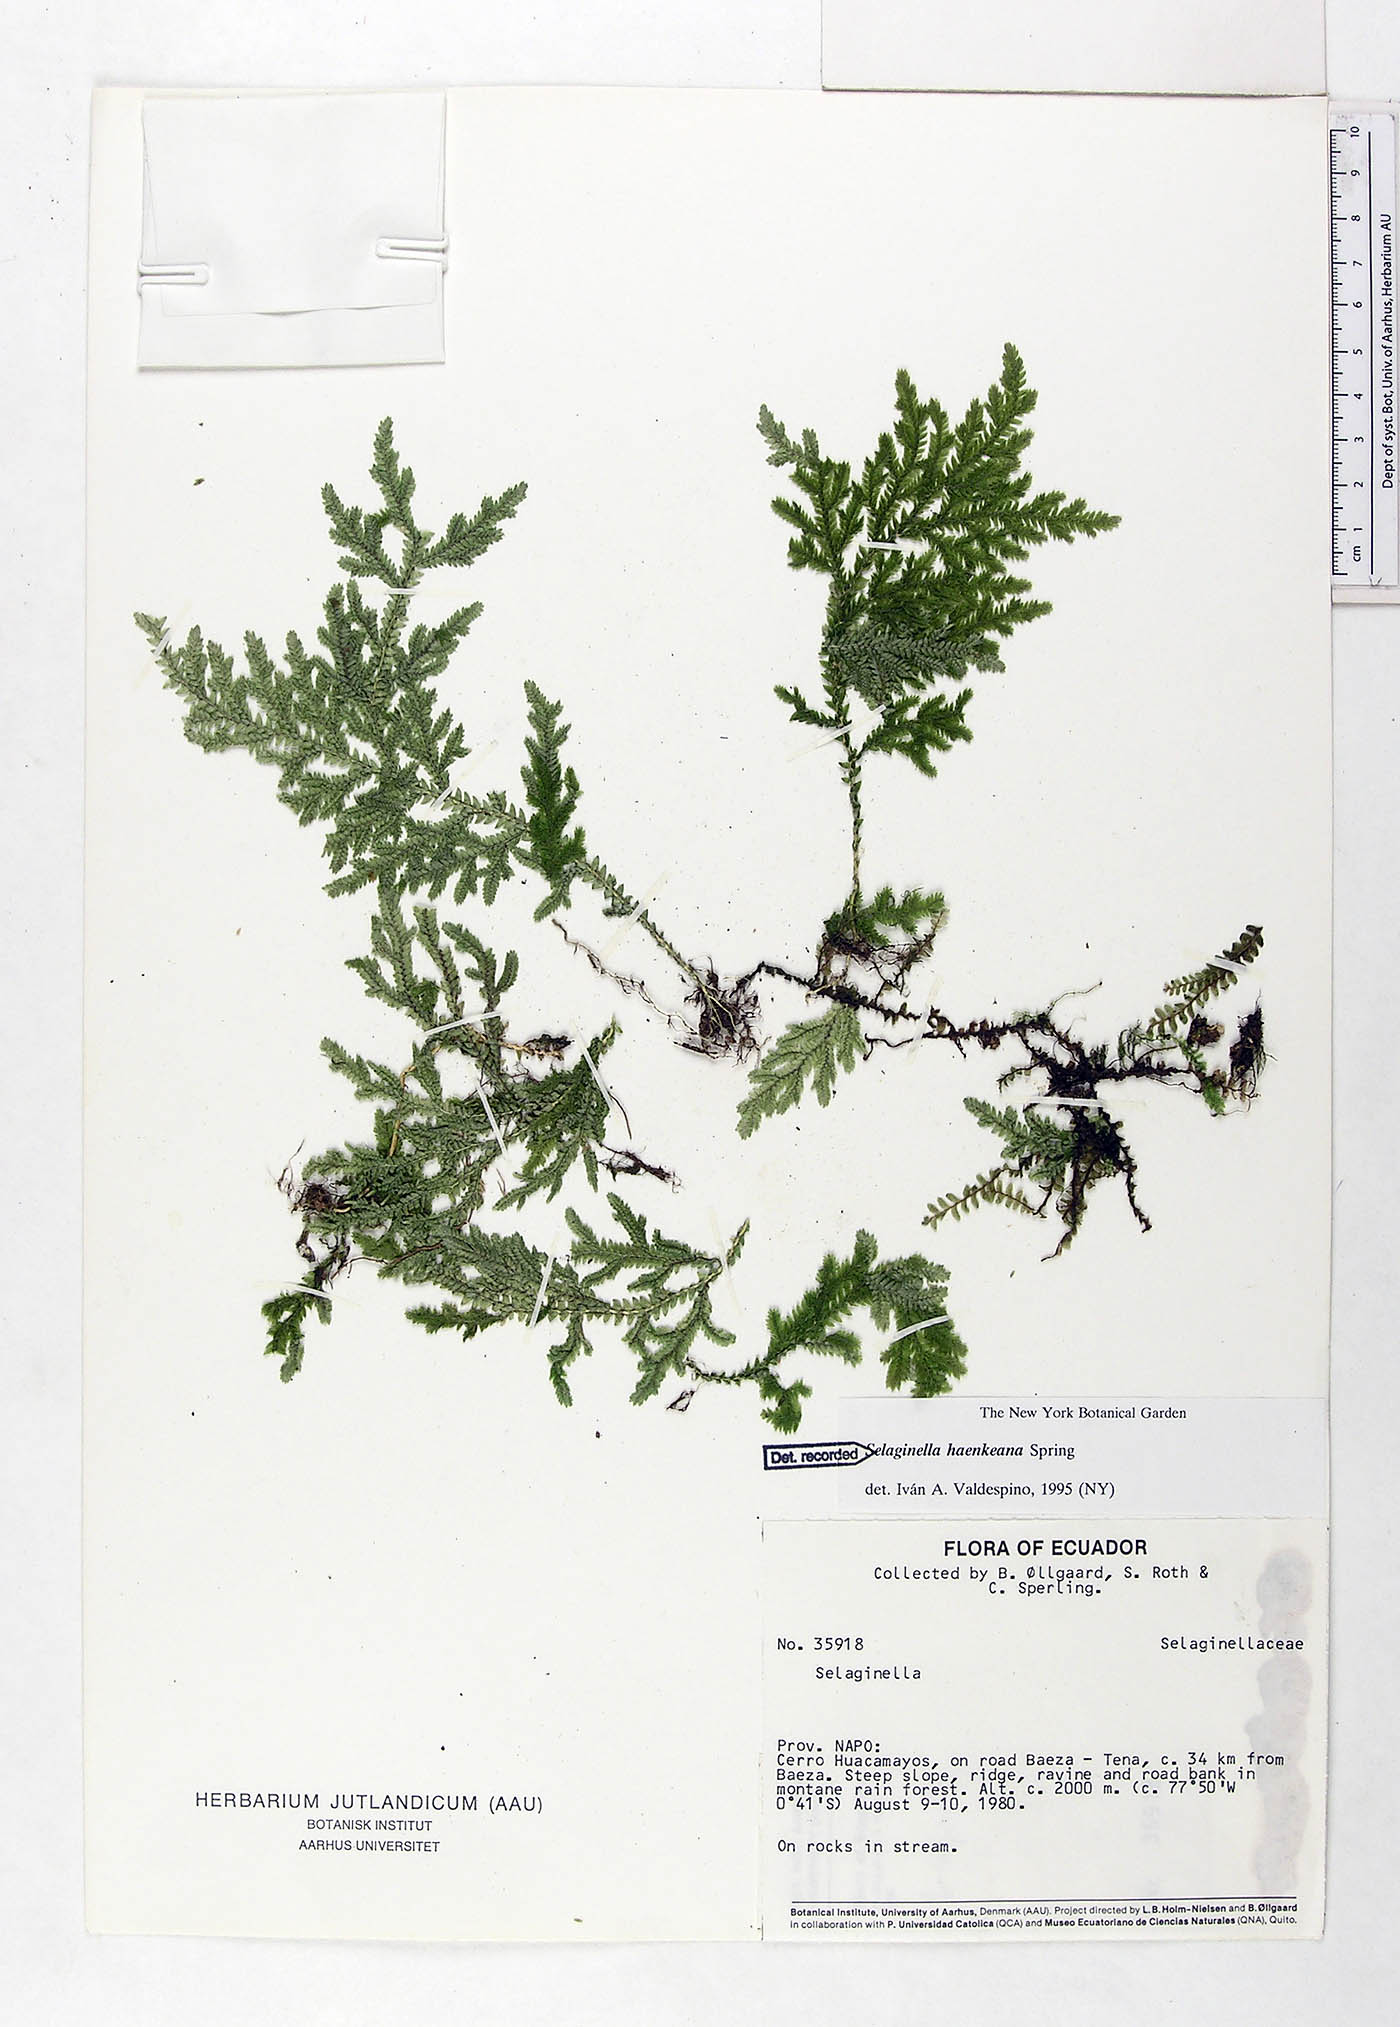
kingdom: Plantae
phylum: Tracheophyta
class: Lycopodiopsida
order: Selaginellales
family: Selaginellaceae
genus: Selaginella
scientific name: Selaginella haenkeana
